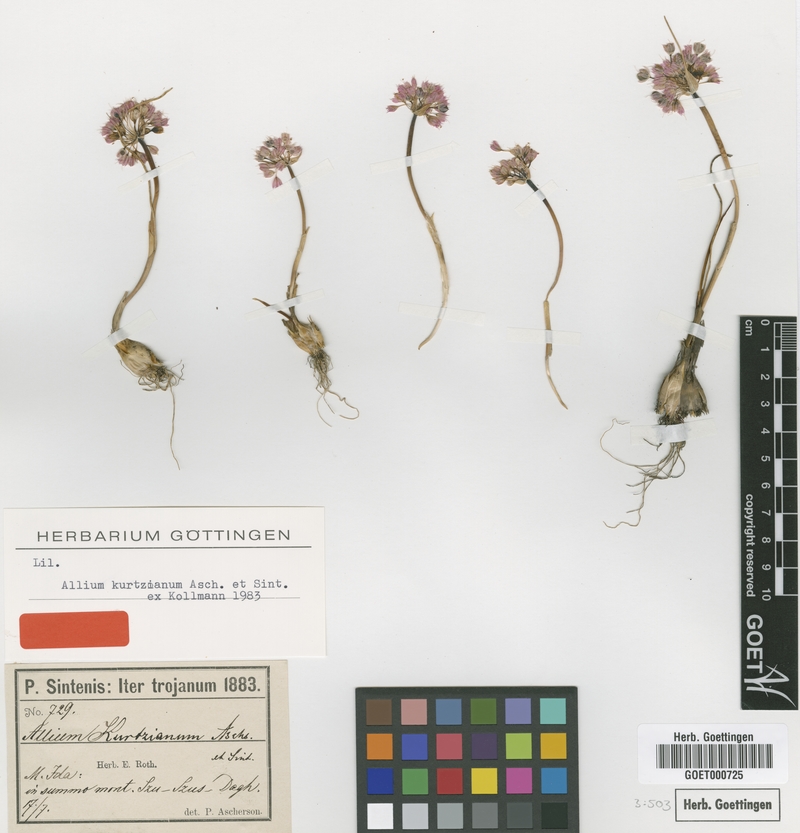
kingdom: Plantae
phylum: Tracheophyta
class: Liliopsida
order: Asparagales
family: Amaryllidaceae
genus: Allium
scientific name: Allium kurtzianum
